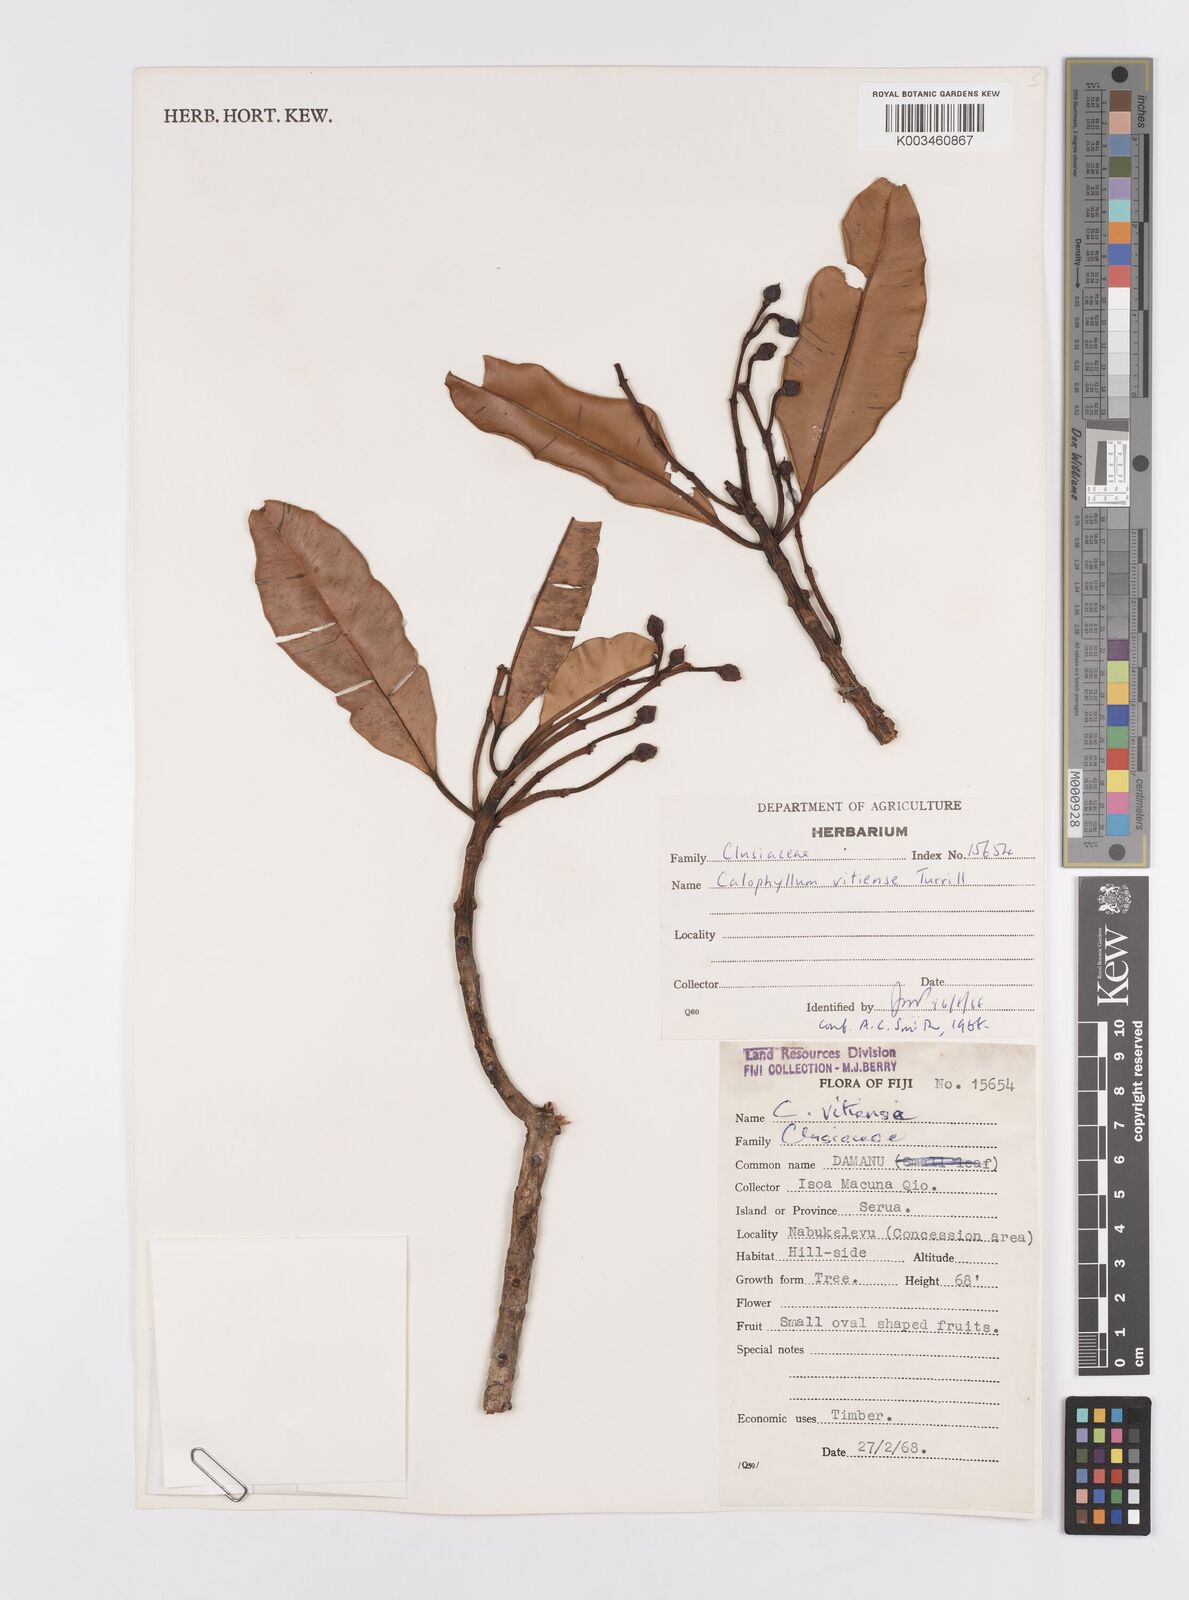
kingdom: Plantae
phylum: Tracheophyta
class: Magnoliopsida
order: Malpighiales
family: Calophyllaceae
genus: Calophyllum
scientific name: Calophyllum vitiense
